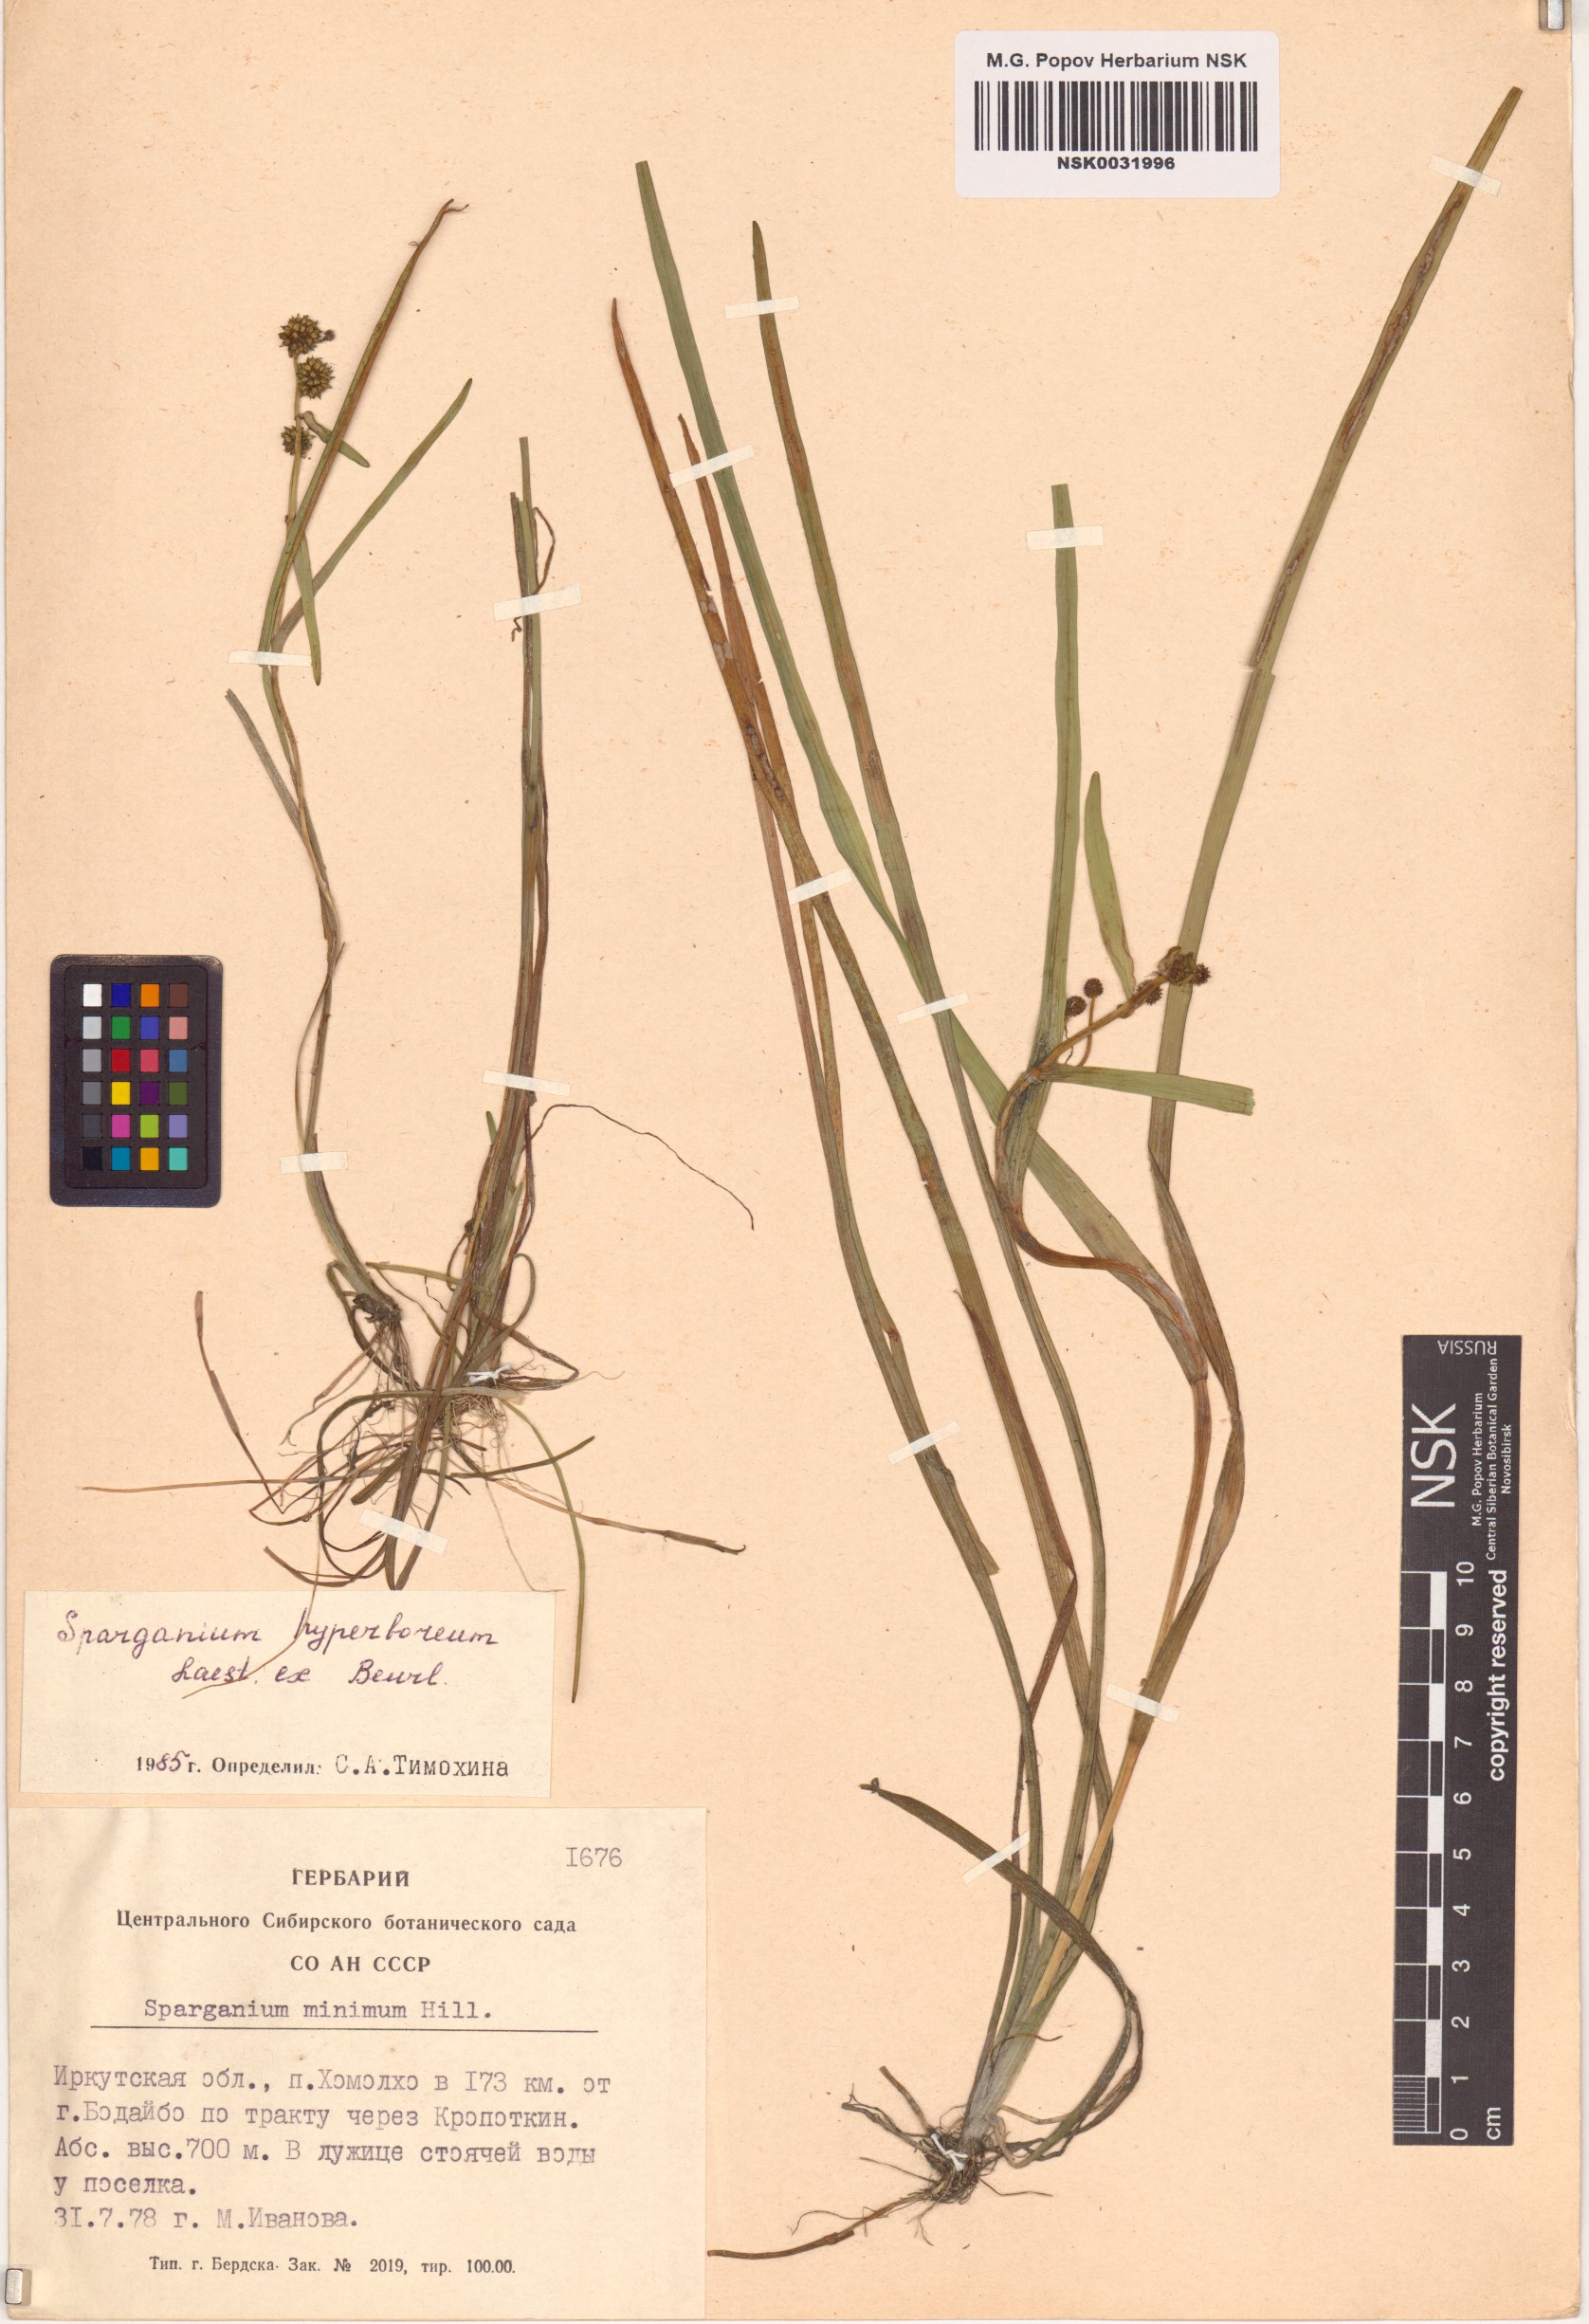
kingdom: Plantae
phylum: Tracheophyta
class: Liliopsida
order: Poales
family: Typhaceae
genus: Sparganium
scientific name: Sparganium hyperboreum
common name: Arctic burreed
